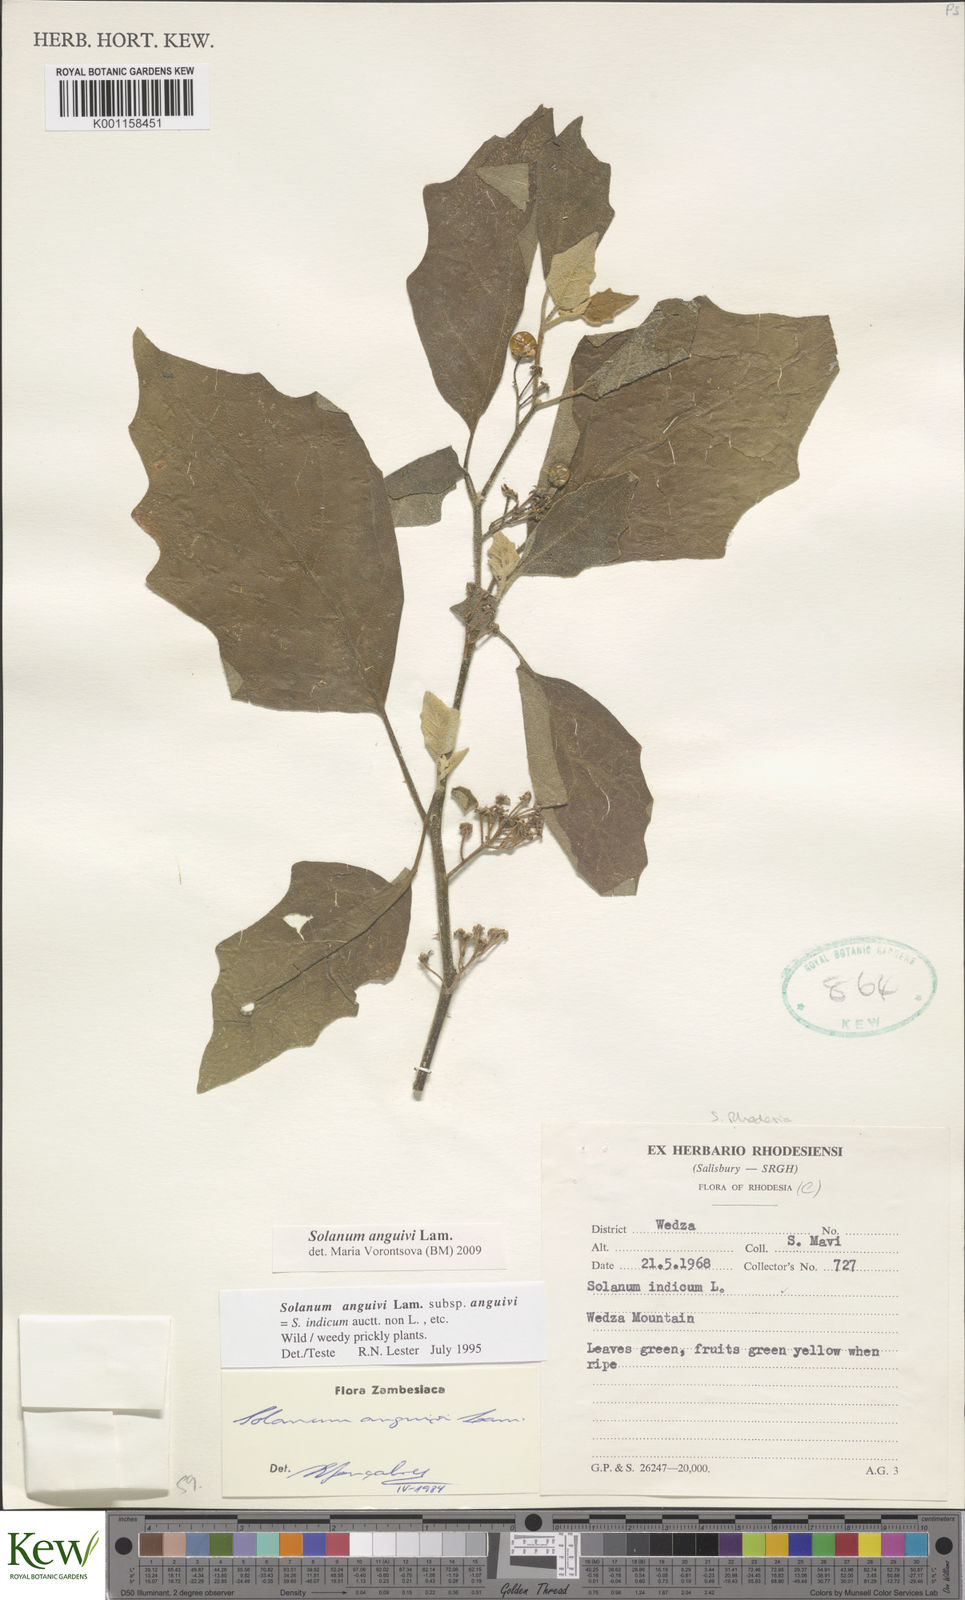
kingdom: Plantae
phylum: Tracheophyta
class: Magnoliopsida
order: Solanales
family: Solanaceae
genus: Solanum
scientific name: Solanum anguivi
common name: Forest bitterberry
